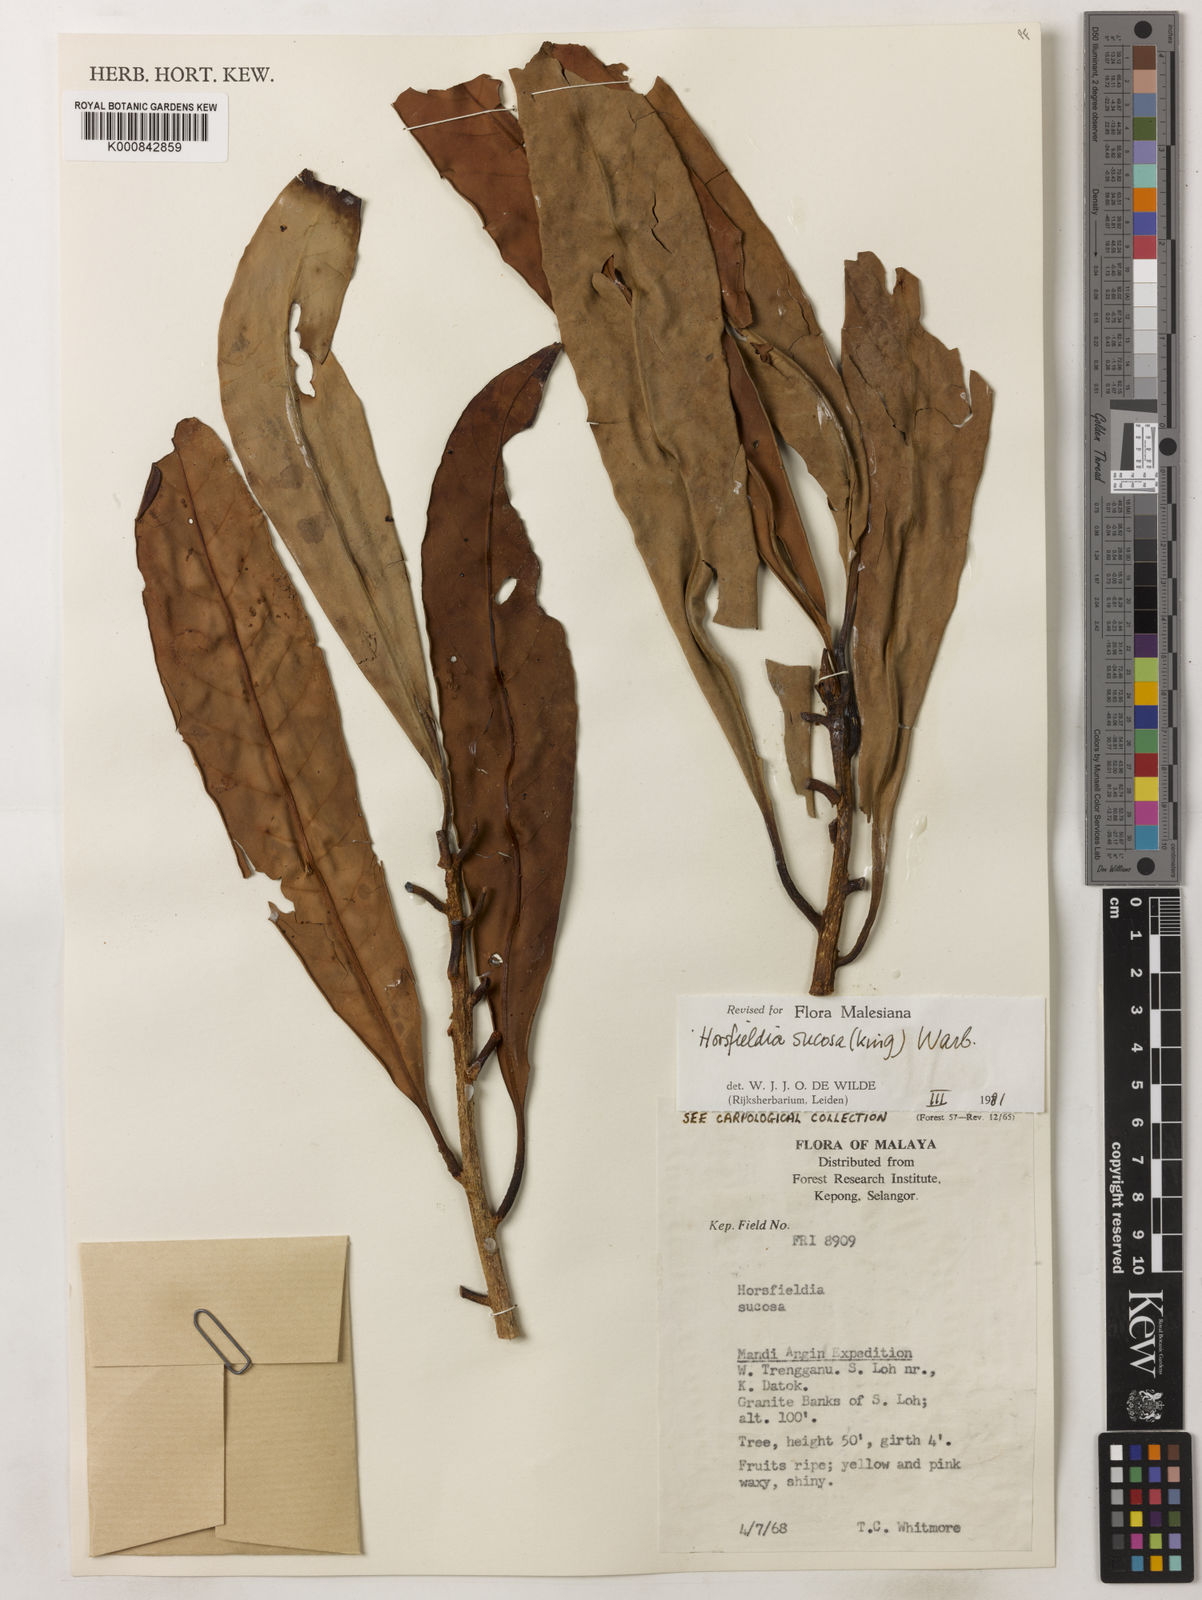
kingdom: Plantae
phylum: Tracheophyta
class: Magnoliopsida
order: Magnoliales
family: Myristicaceae
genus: Horsfieldia
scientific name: Horsfieldia sucosa
